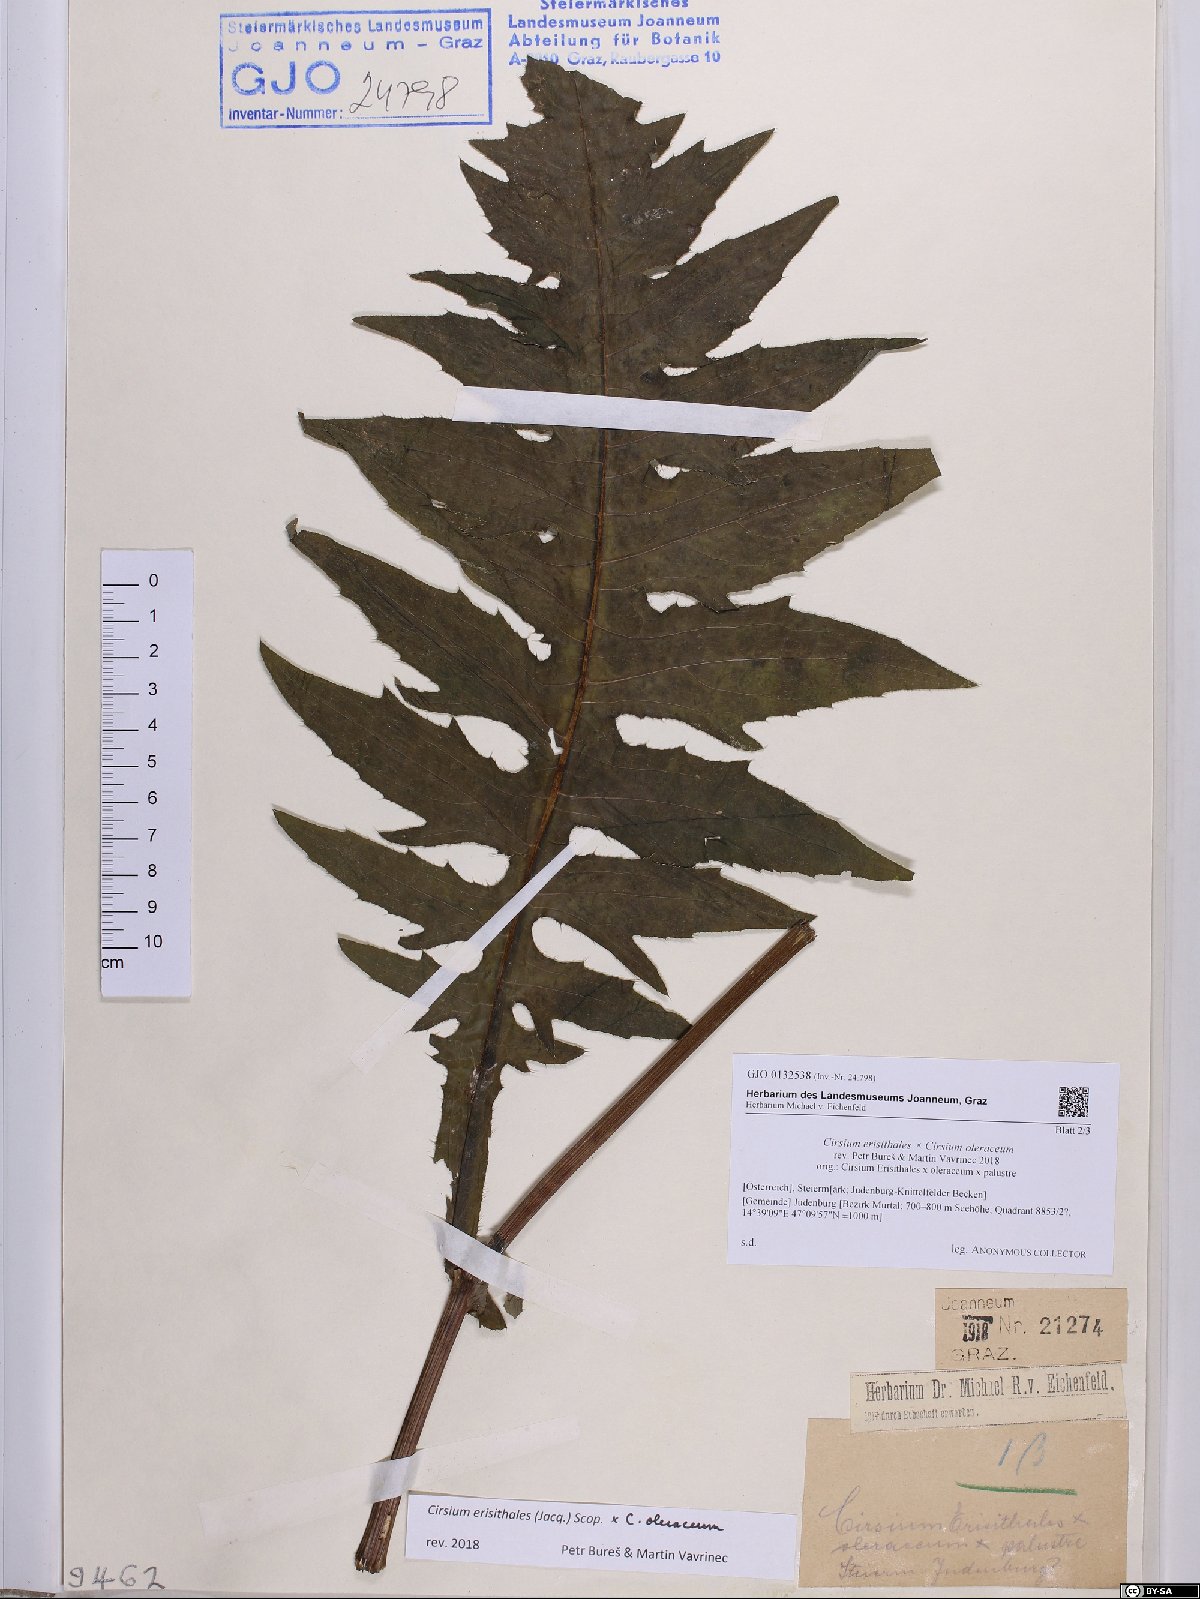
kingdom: Plantae
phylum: Tracheophyta
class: Magnoliopsida
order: Asterales
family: Asteraceae
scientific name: Asteraceae
